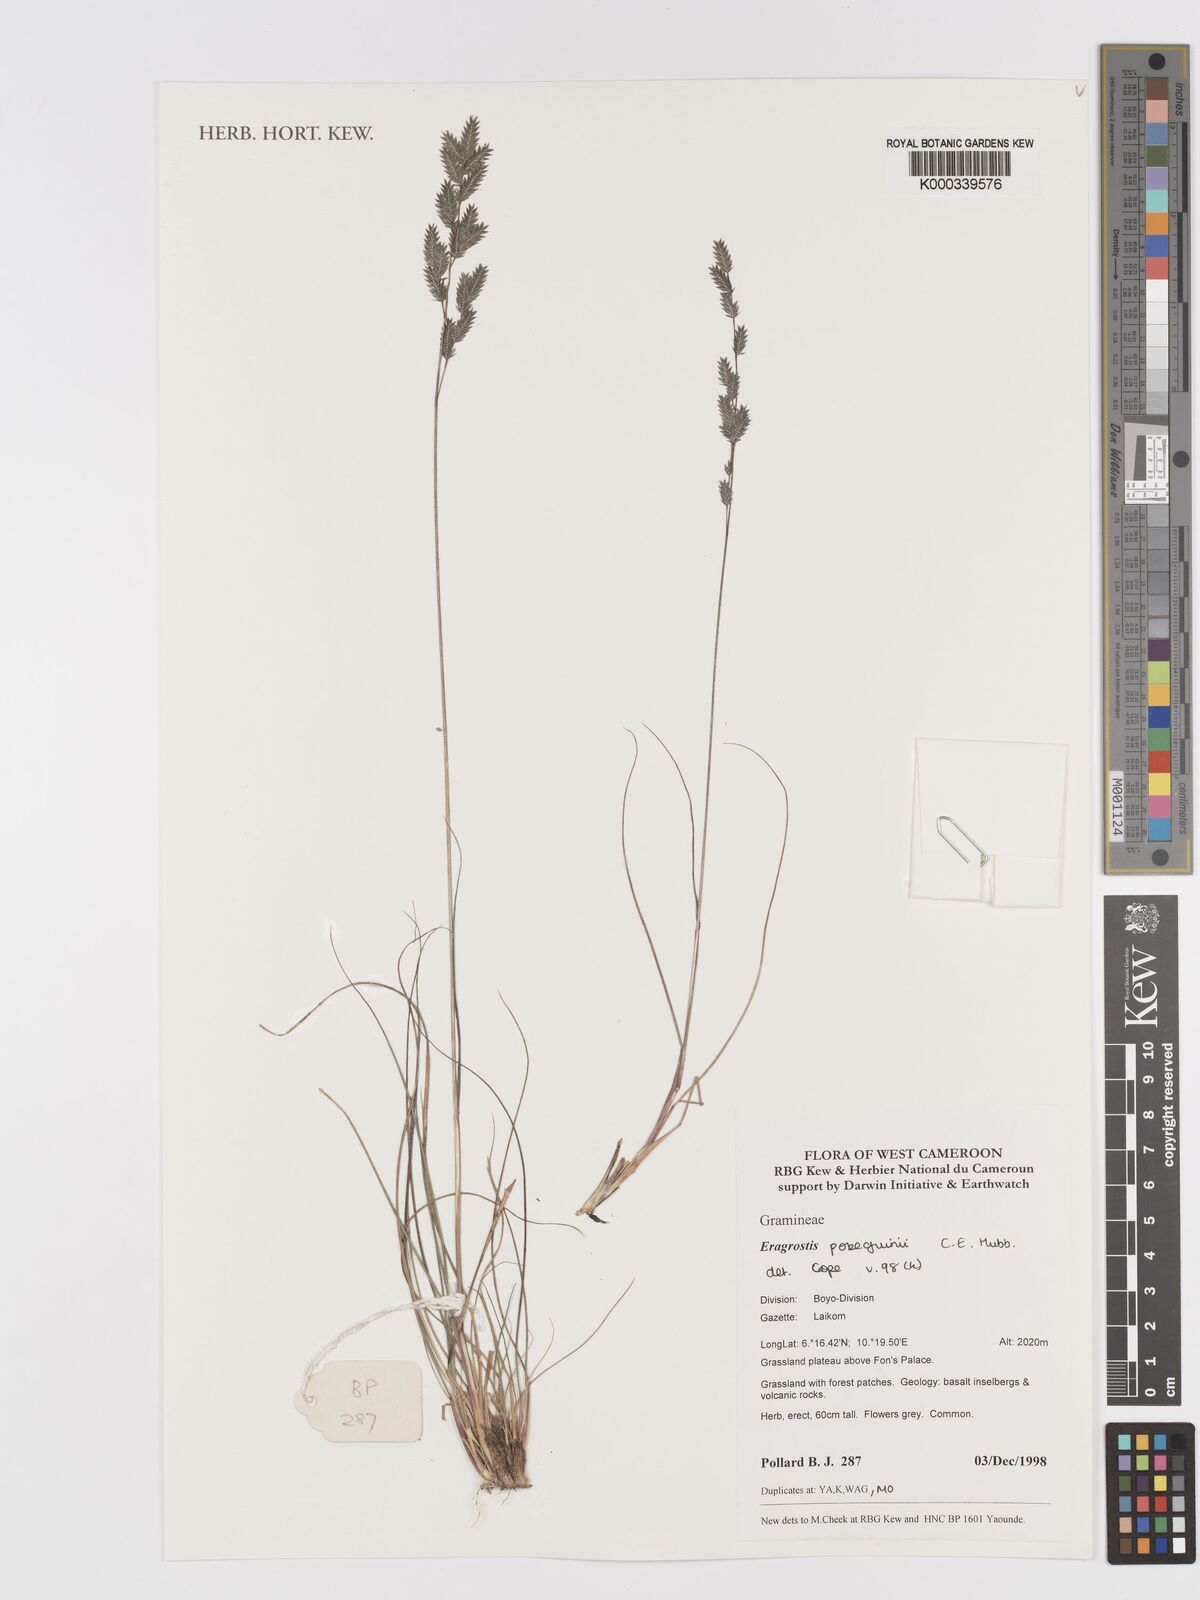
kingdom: Plantae
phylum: Tracheophyta
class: Liliopsida
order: Poales
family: Poaceae
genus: Eragrostis
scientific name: Eragrostis pobeguinii
